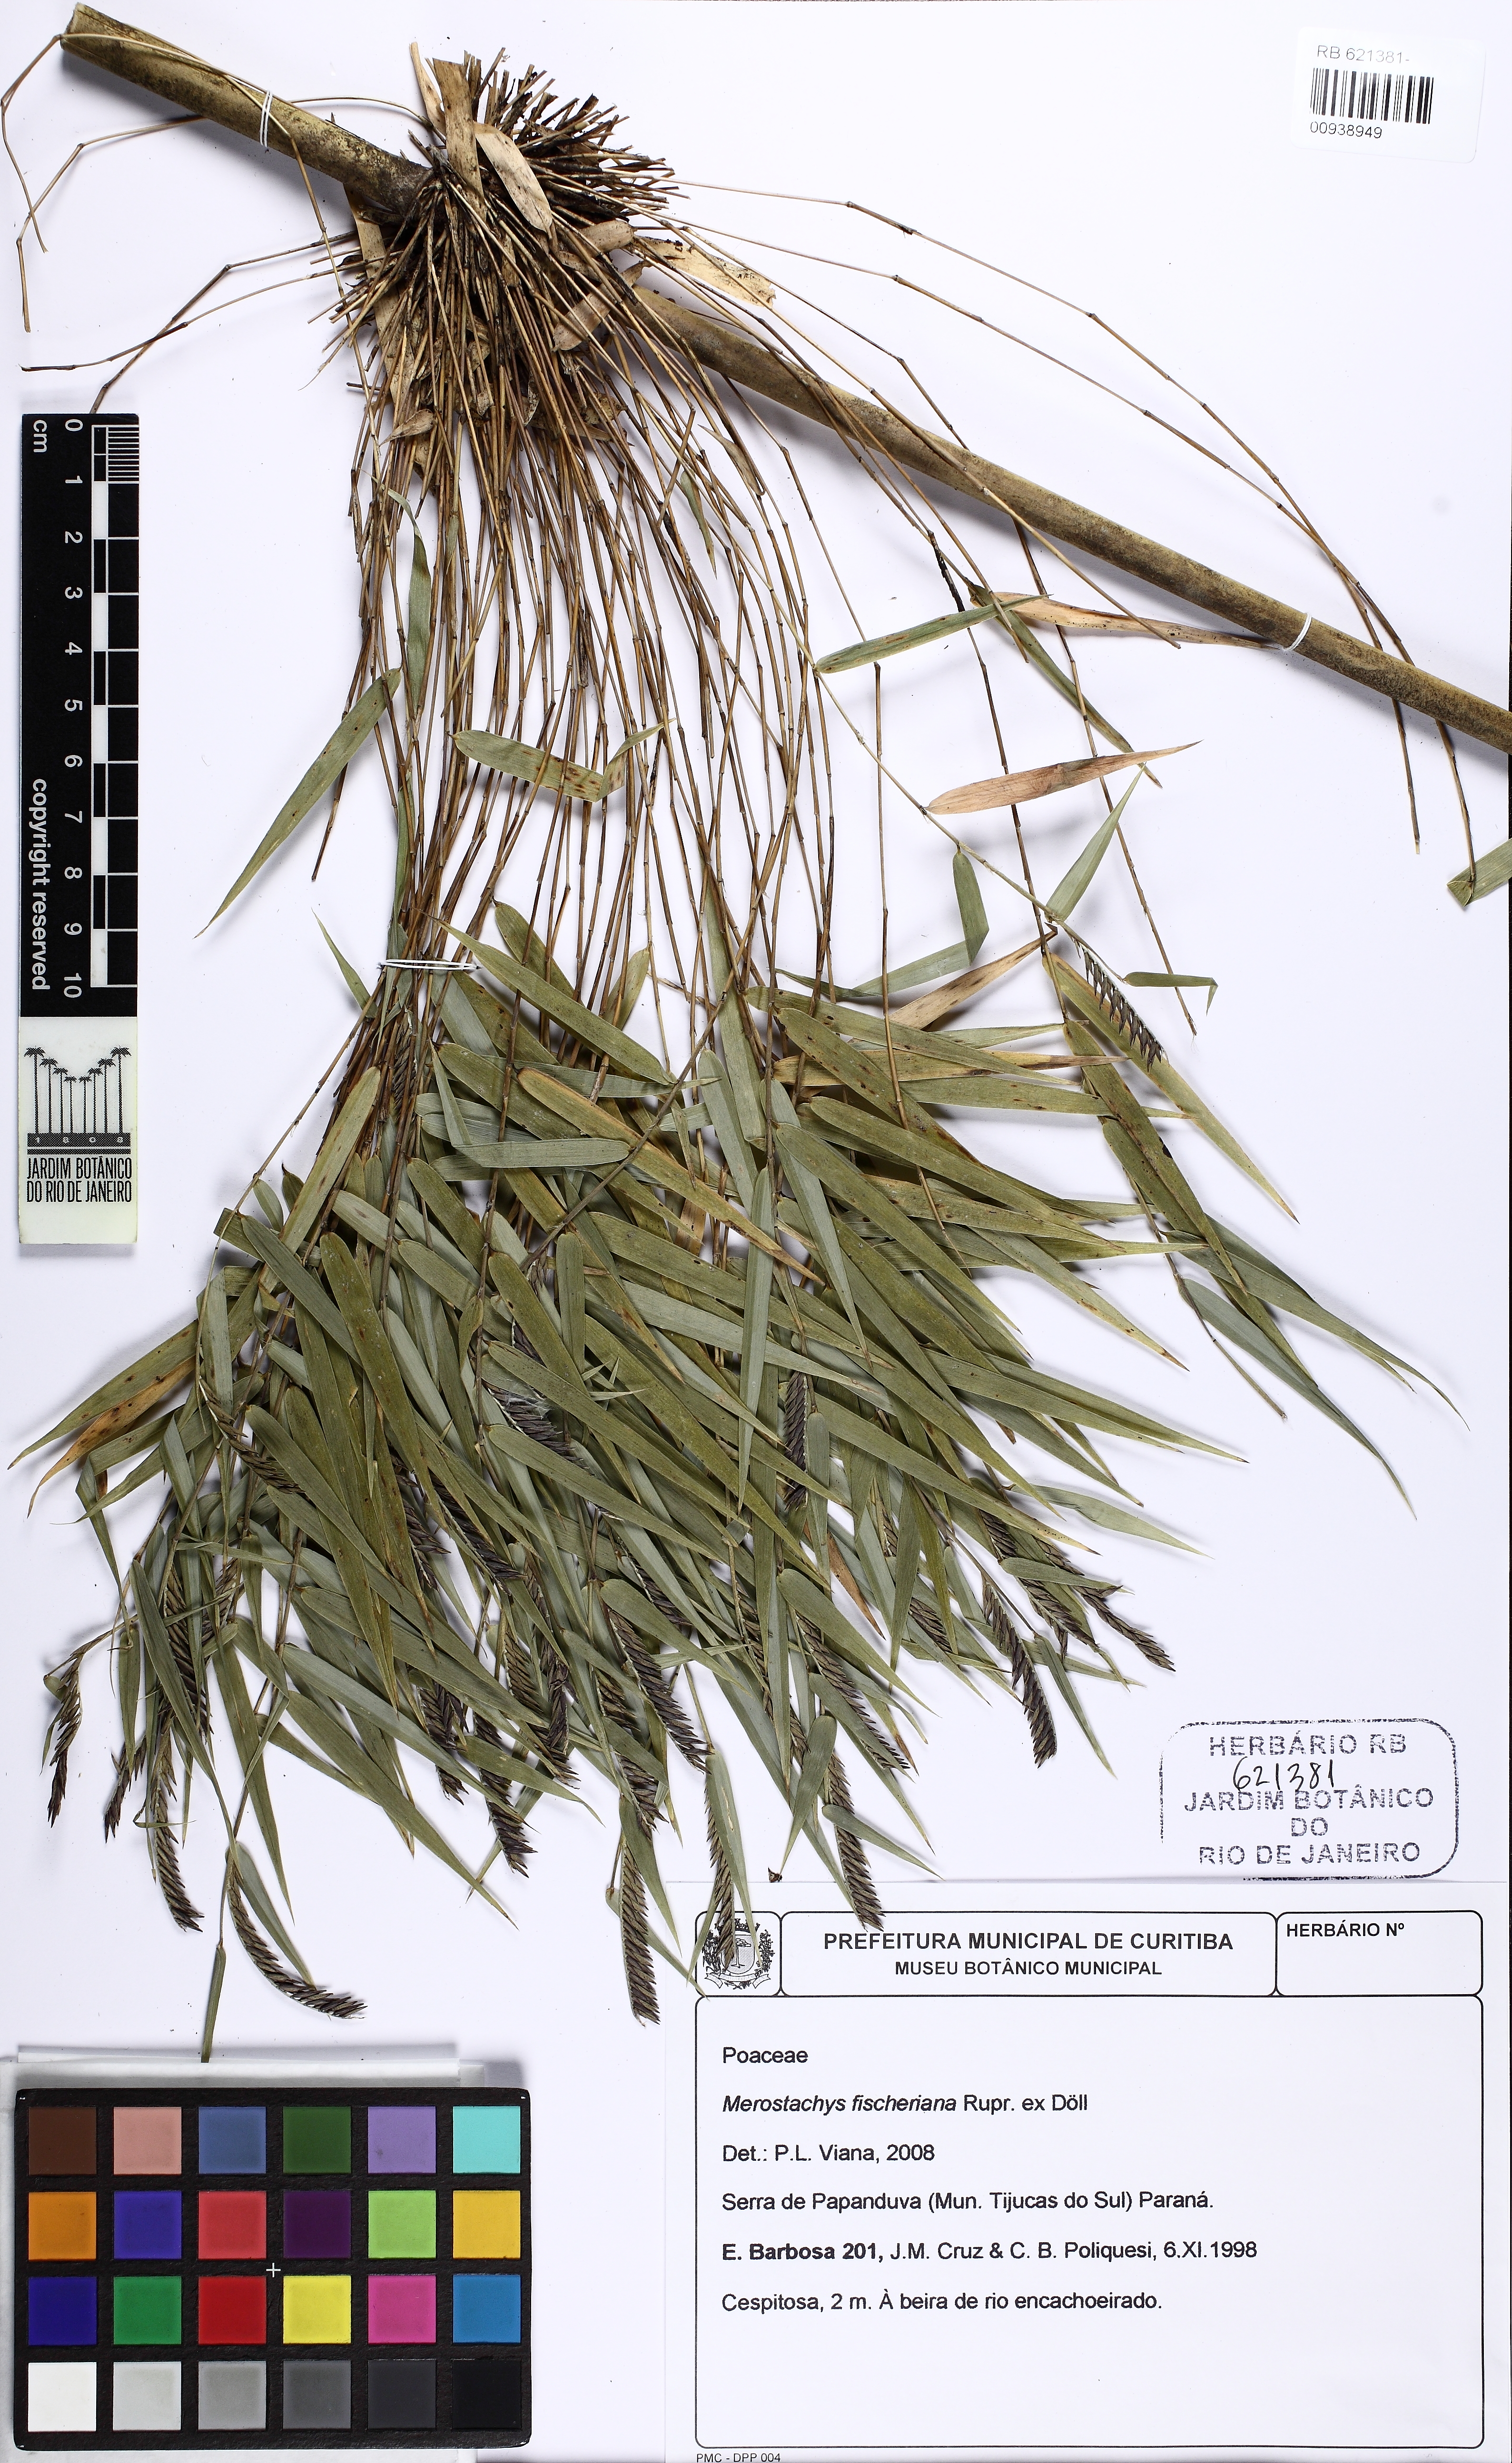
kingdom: Plantae
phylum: Tracheophyta
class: Liliopsida
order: Poales
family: Poaceae
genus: Merostachys
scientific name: Merostachys fischeriana
